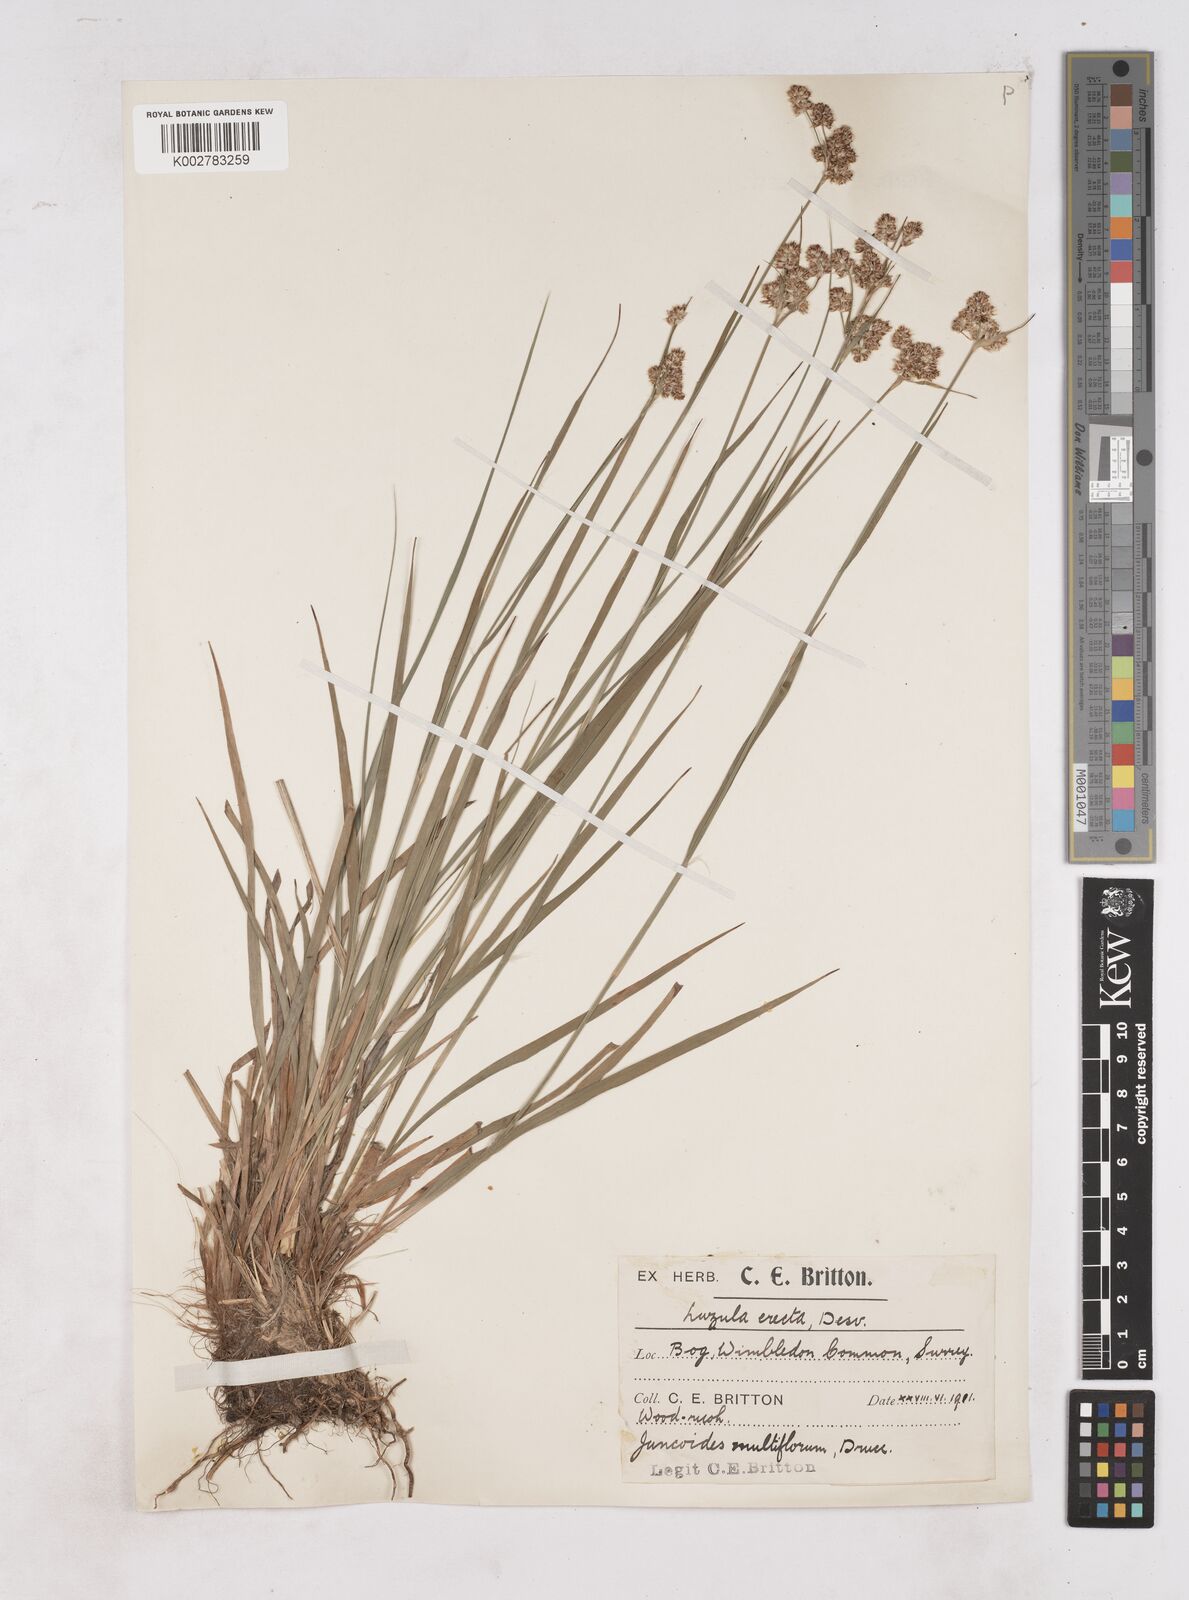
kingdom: Plantae
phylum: Tracheophyta
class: Liliopsida
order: Poales
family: Juncaceae
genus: Luzula
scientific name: Luzula multiflora
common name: Heath wood-rush
